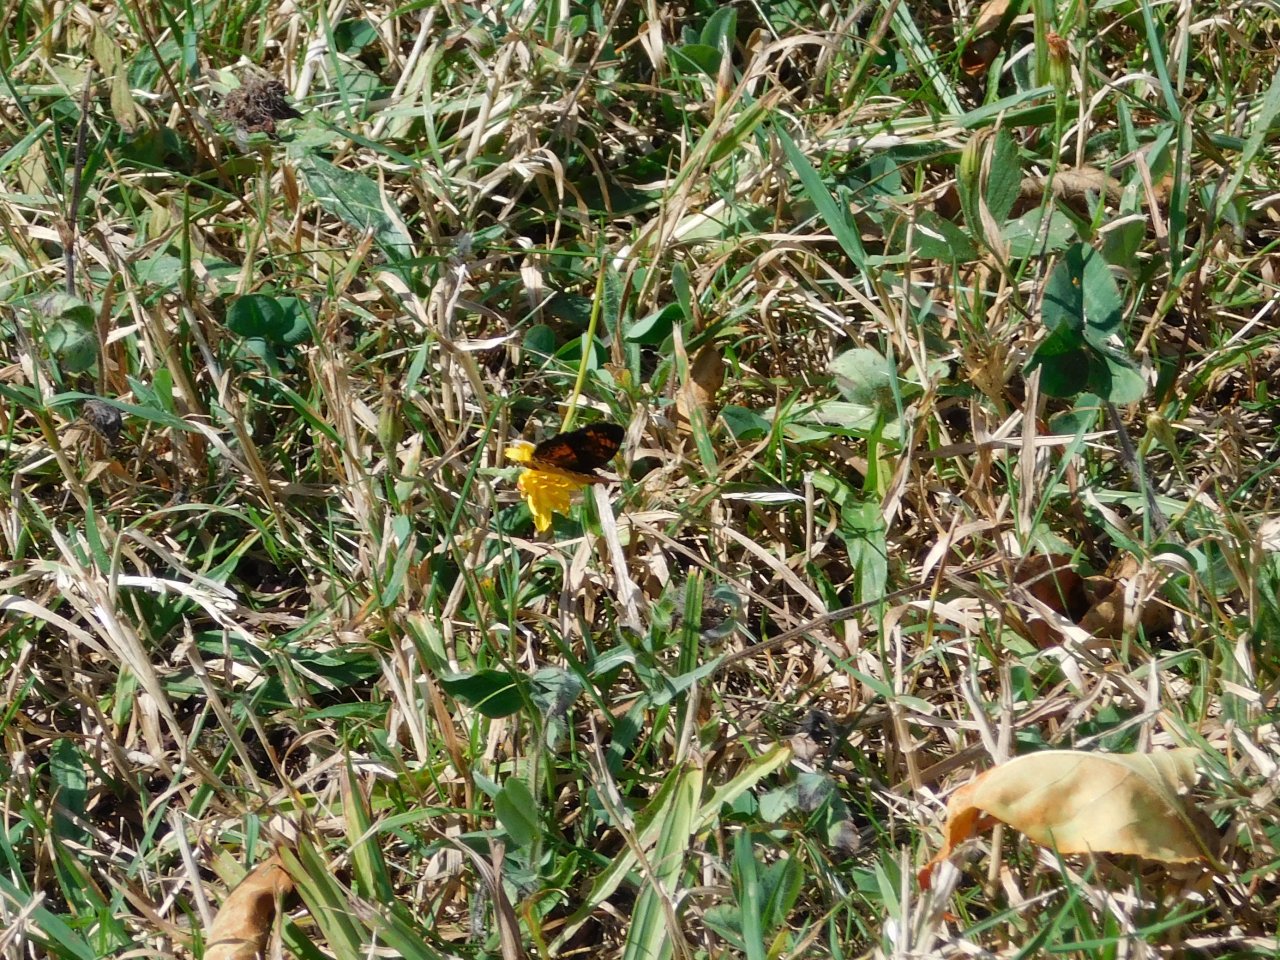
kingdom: Animalia
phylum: Arthropoda
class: Insecta
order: Lepidoptera
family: Nymphalidae
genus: Phyciodes
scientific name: Phyciodes tharos
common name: Pearl Crescent
